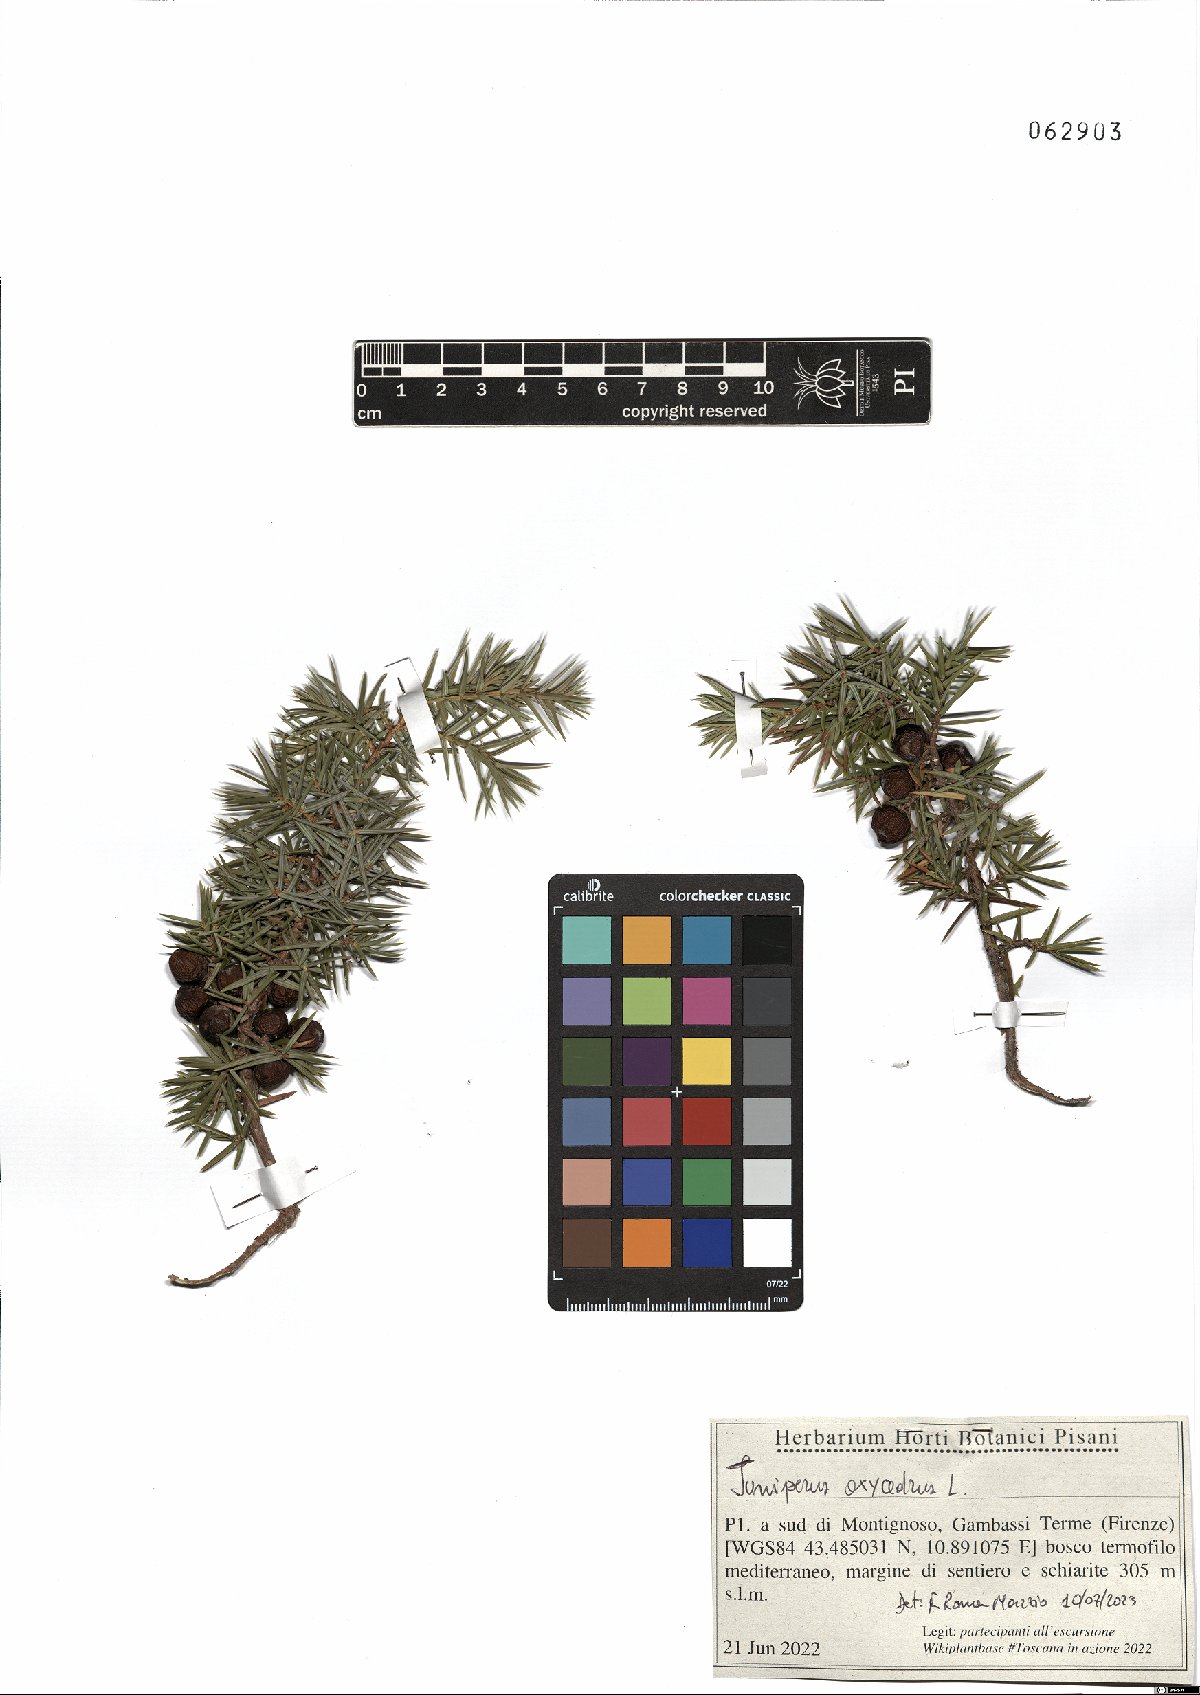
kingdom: Plantae
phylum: Tracheophyta
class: Pinopsida
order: Pinales
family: Cupressaceae
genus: Juniperus
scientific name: Juniperus oxycedrus
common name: Prickly juniper
